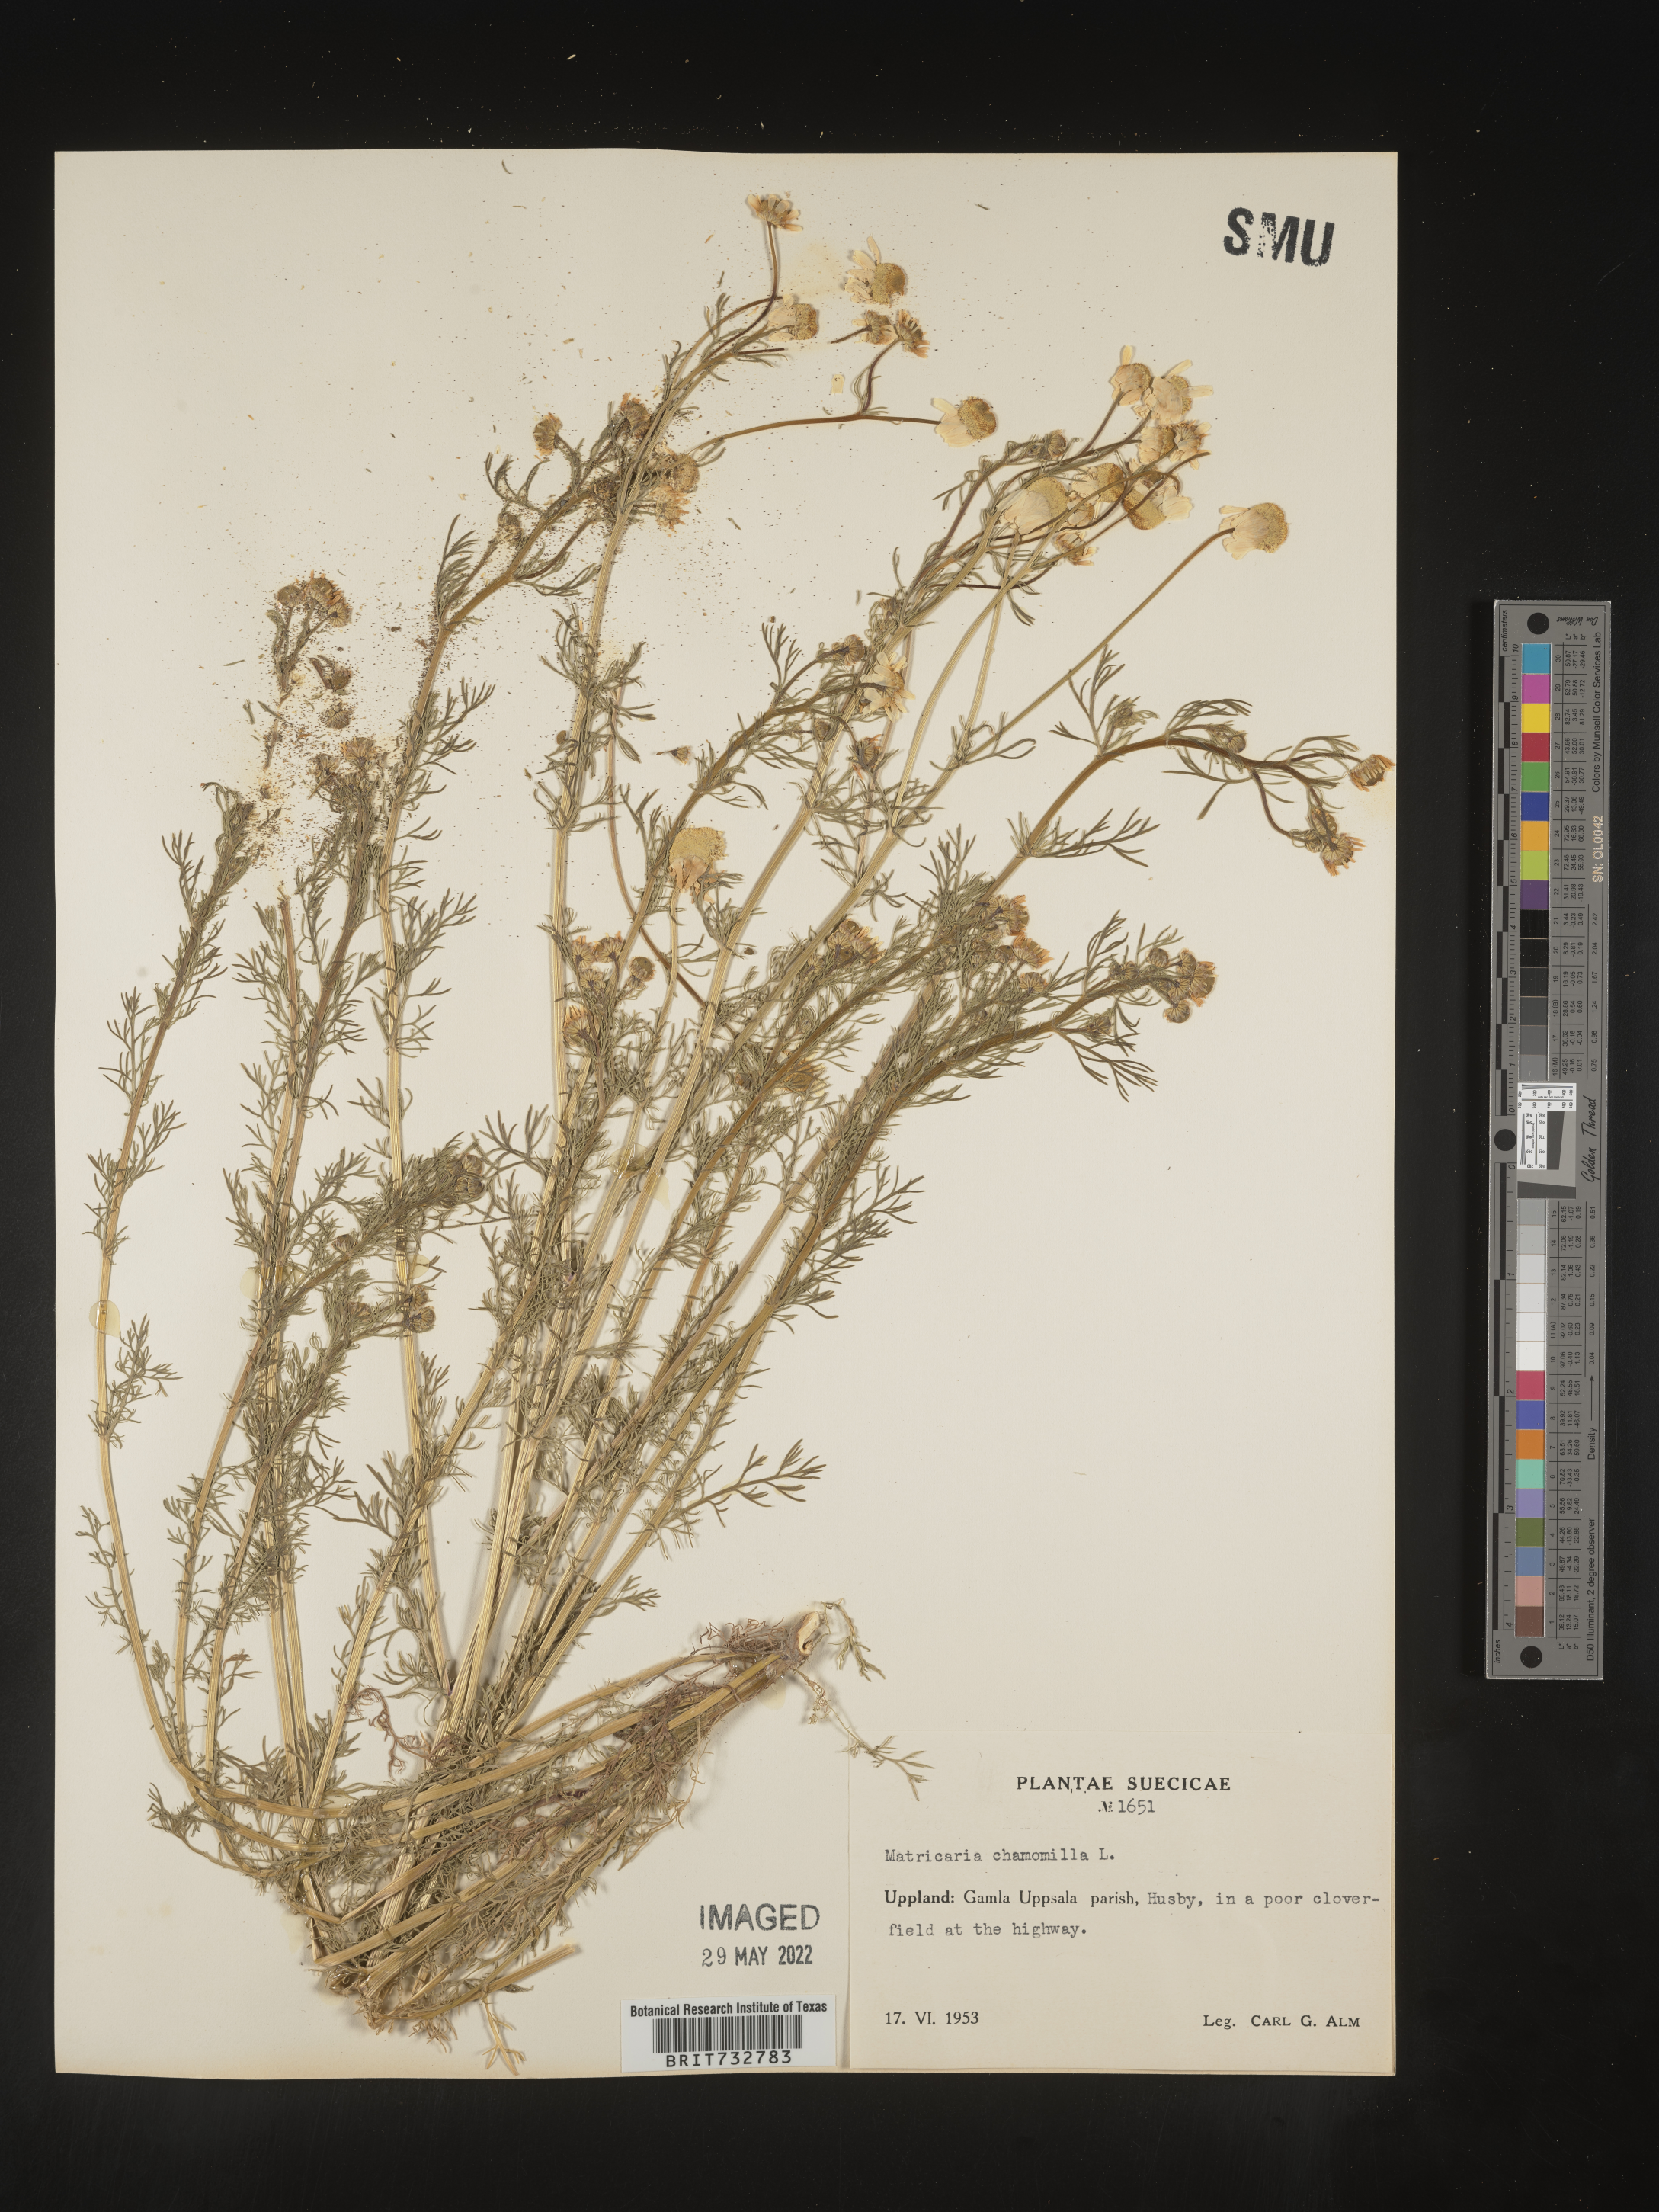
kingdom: Plantae
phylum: Tracheophyta
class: Magnoliopsida
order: Asterales
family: Asteraceae
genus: Matricaria
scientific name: Matricaria
